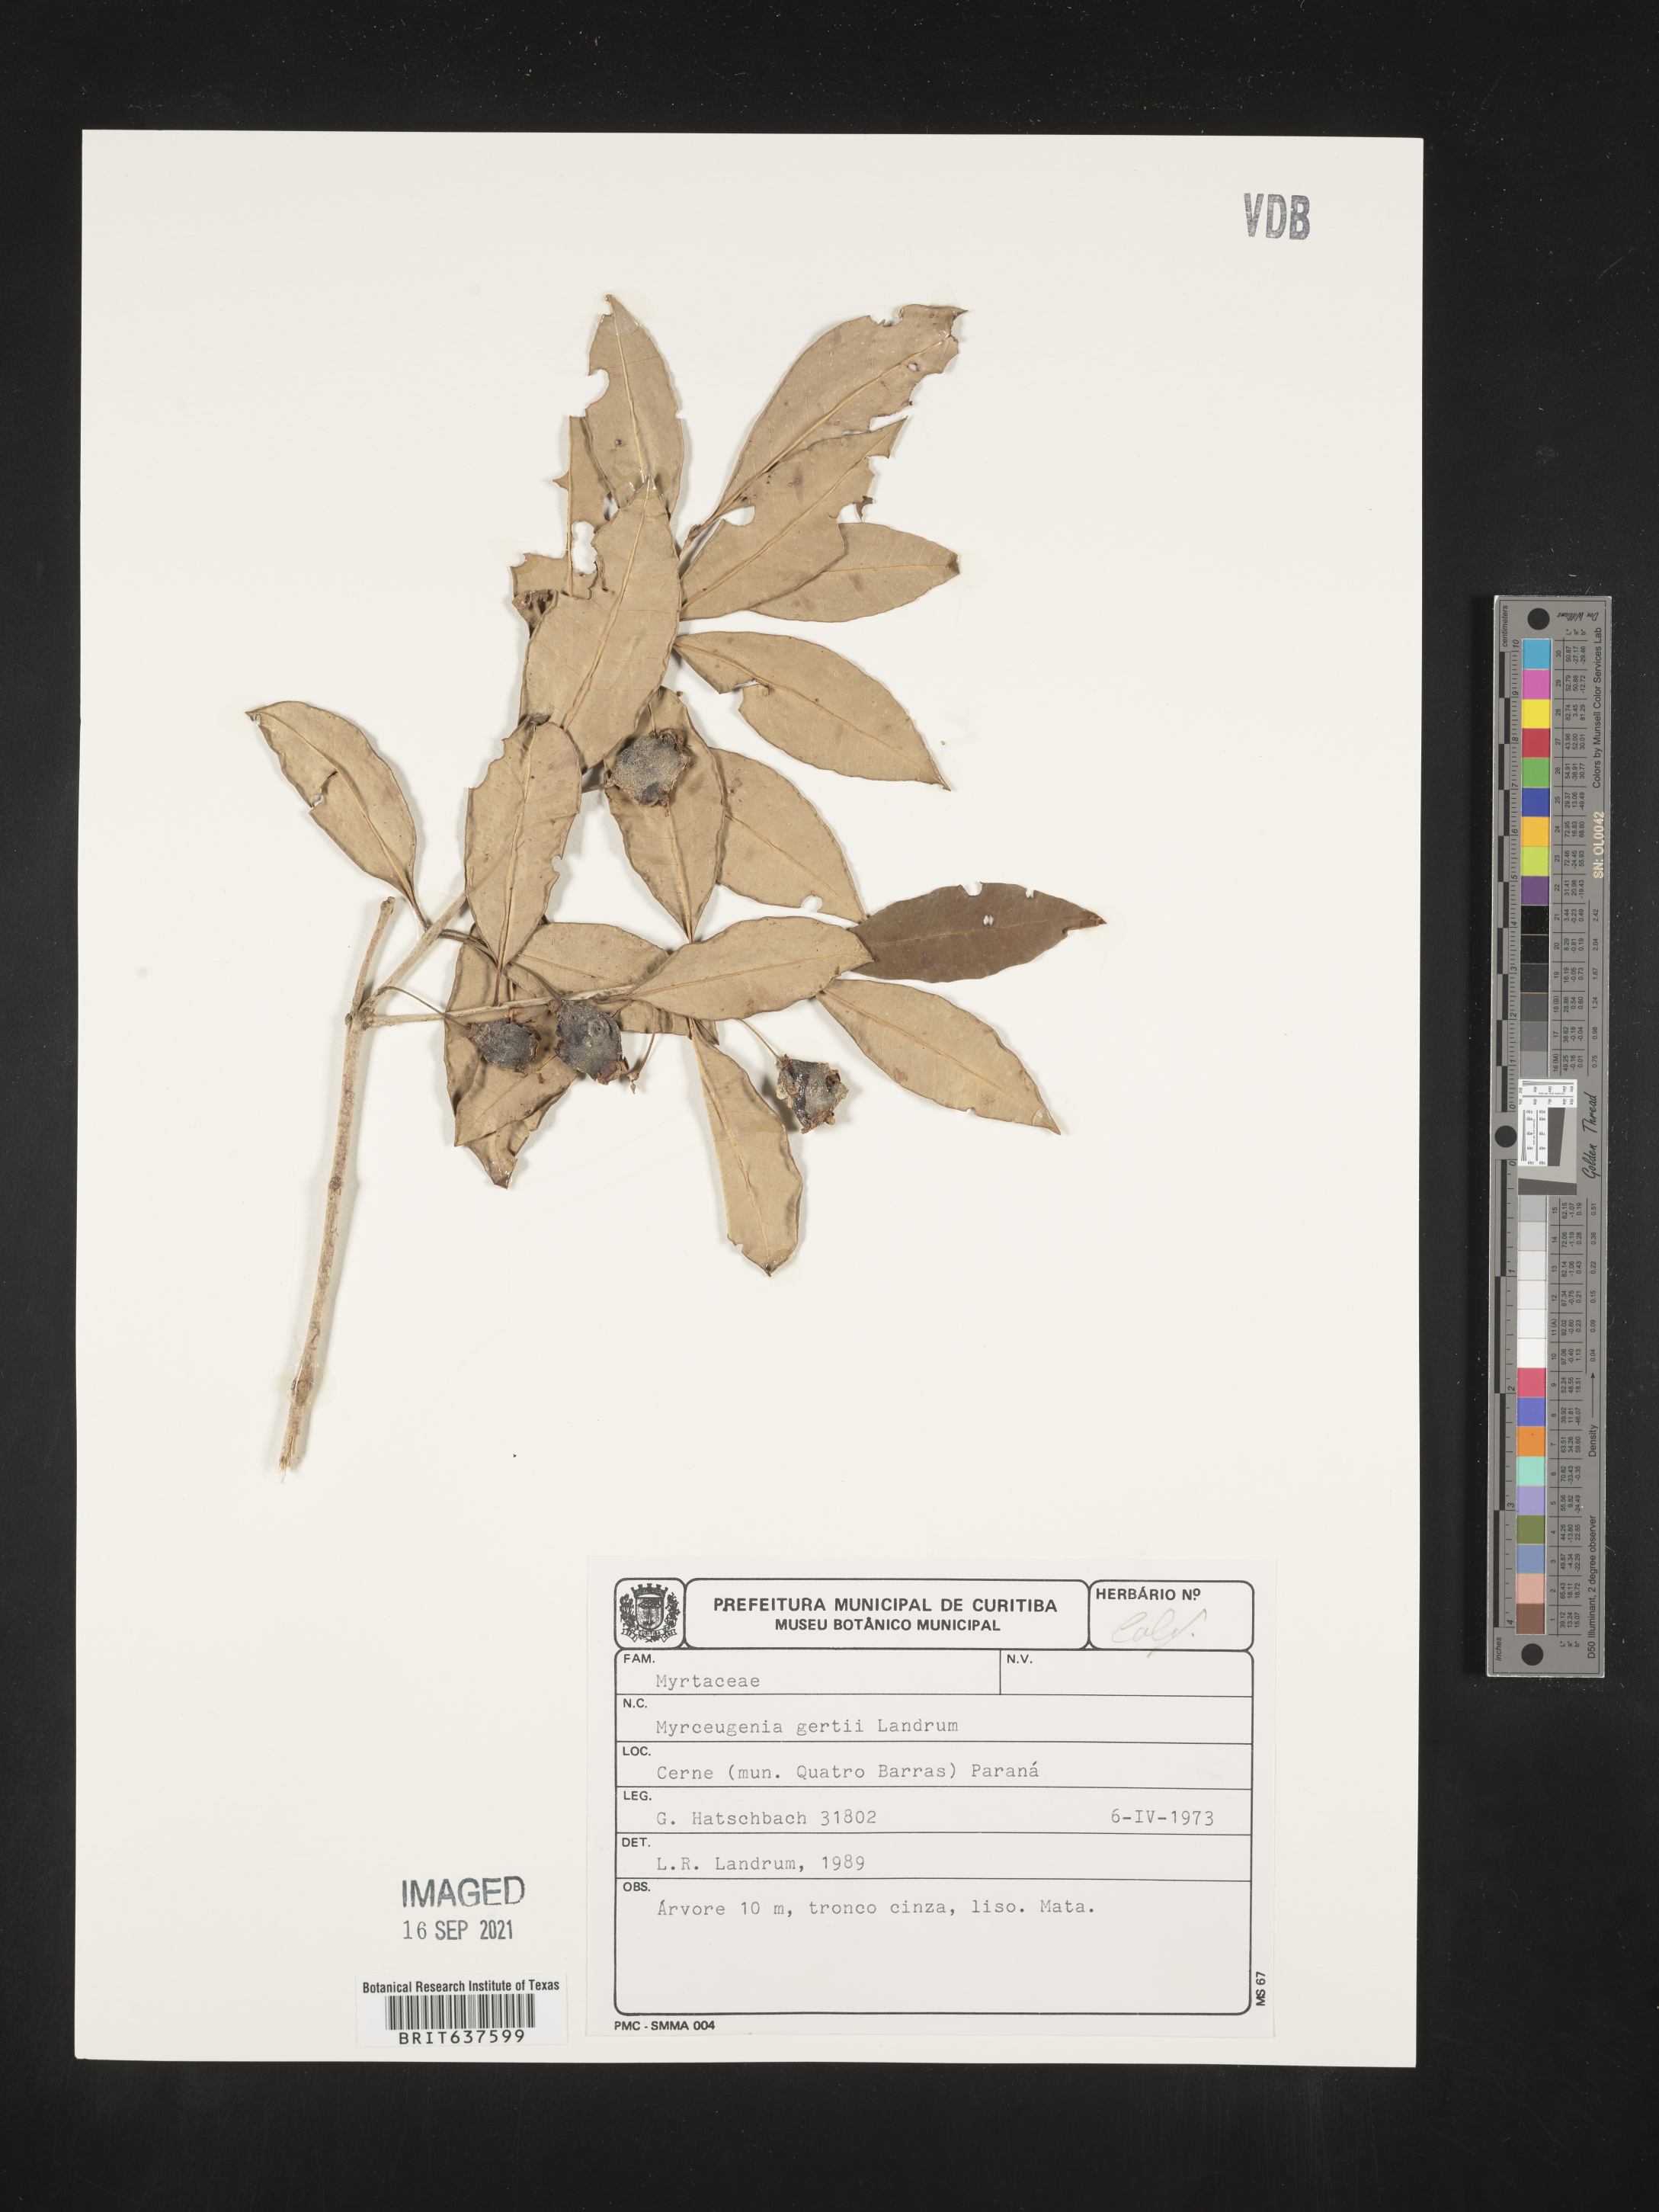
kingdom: Plantae
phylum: Tracheophyta
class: Magnoliopsida
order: Myrtales
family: Myrtaceae
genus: Myrceugenia
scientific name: Myrceugenia
